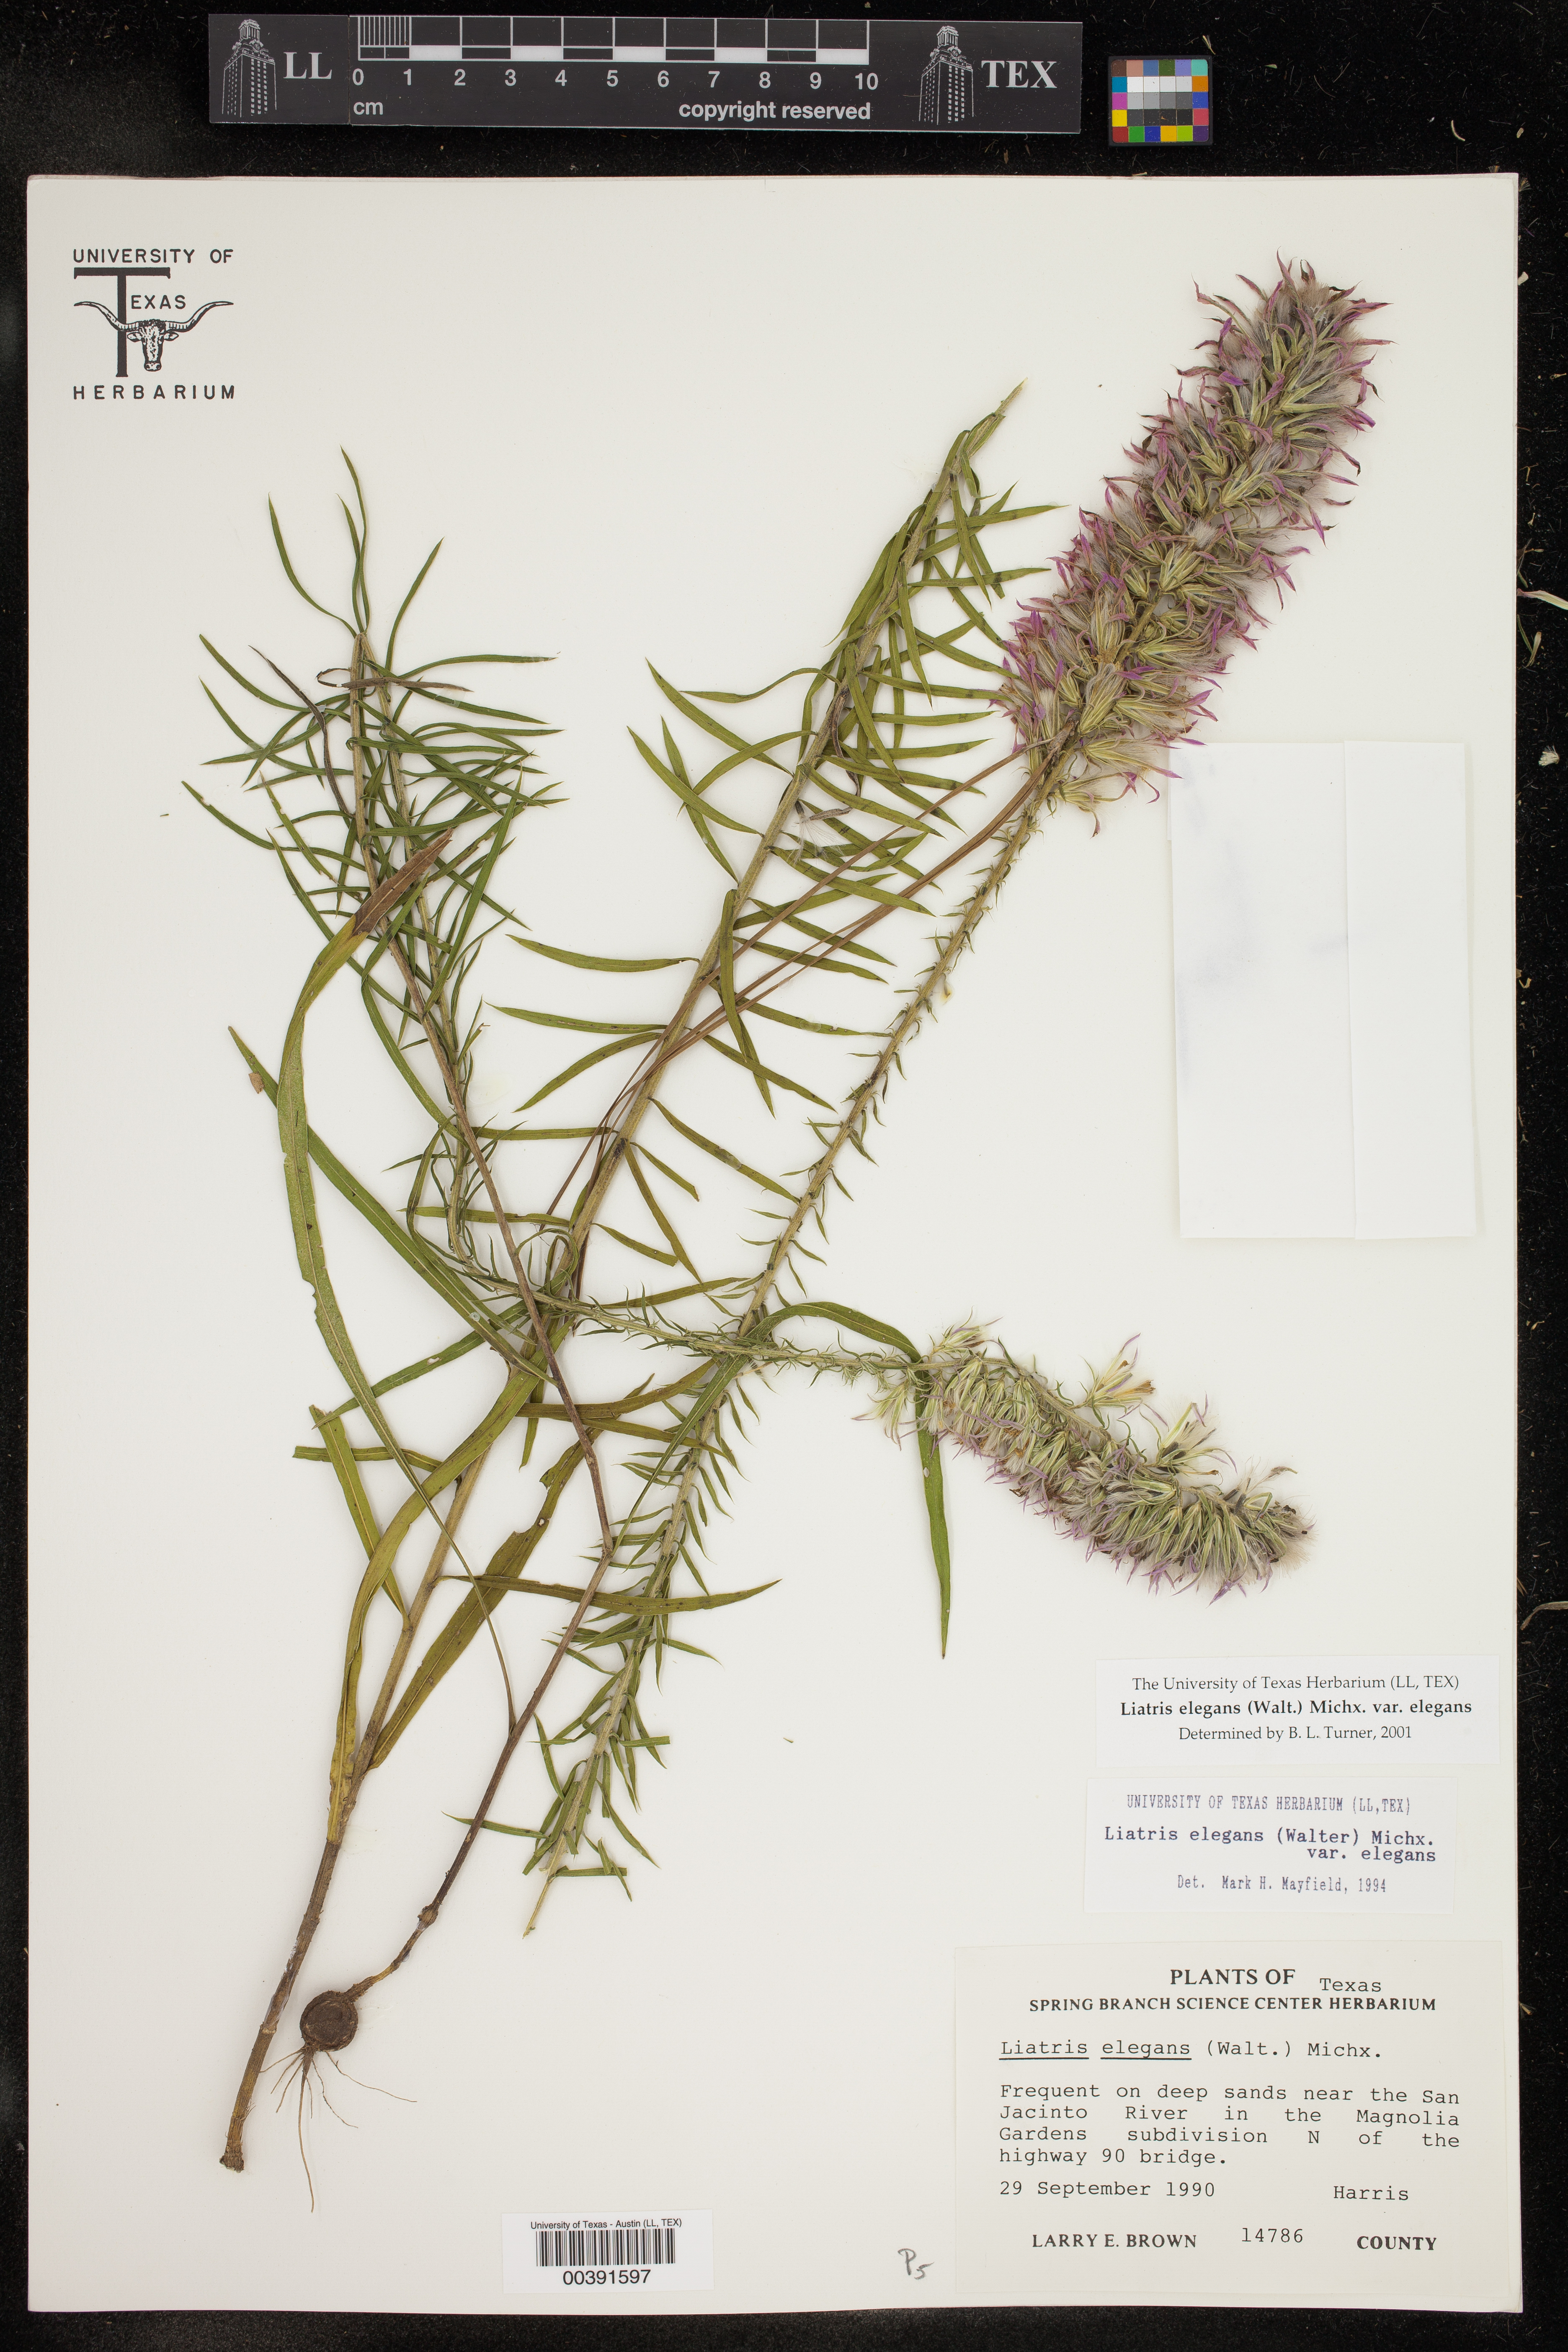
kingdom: Plantae
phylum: Tracheophyta
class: Magnoliopsida
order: Asterales
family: Asteraceae
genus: Liatris
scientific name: Liatris elegans
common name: Pinkscale gayfeather
